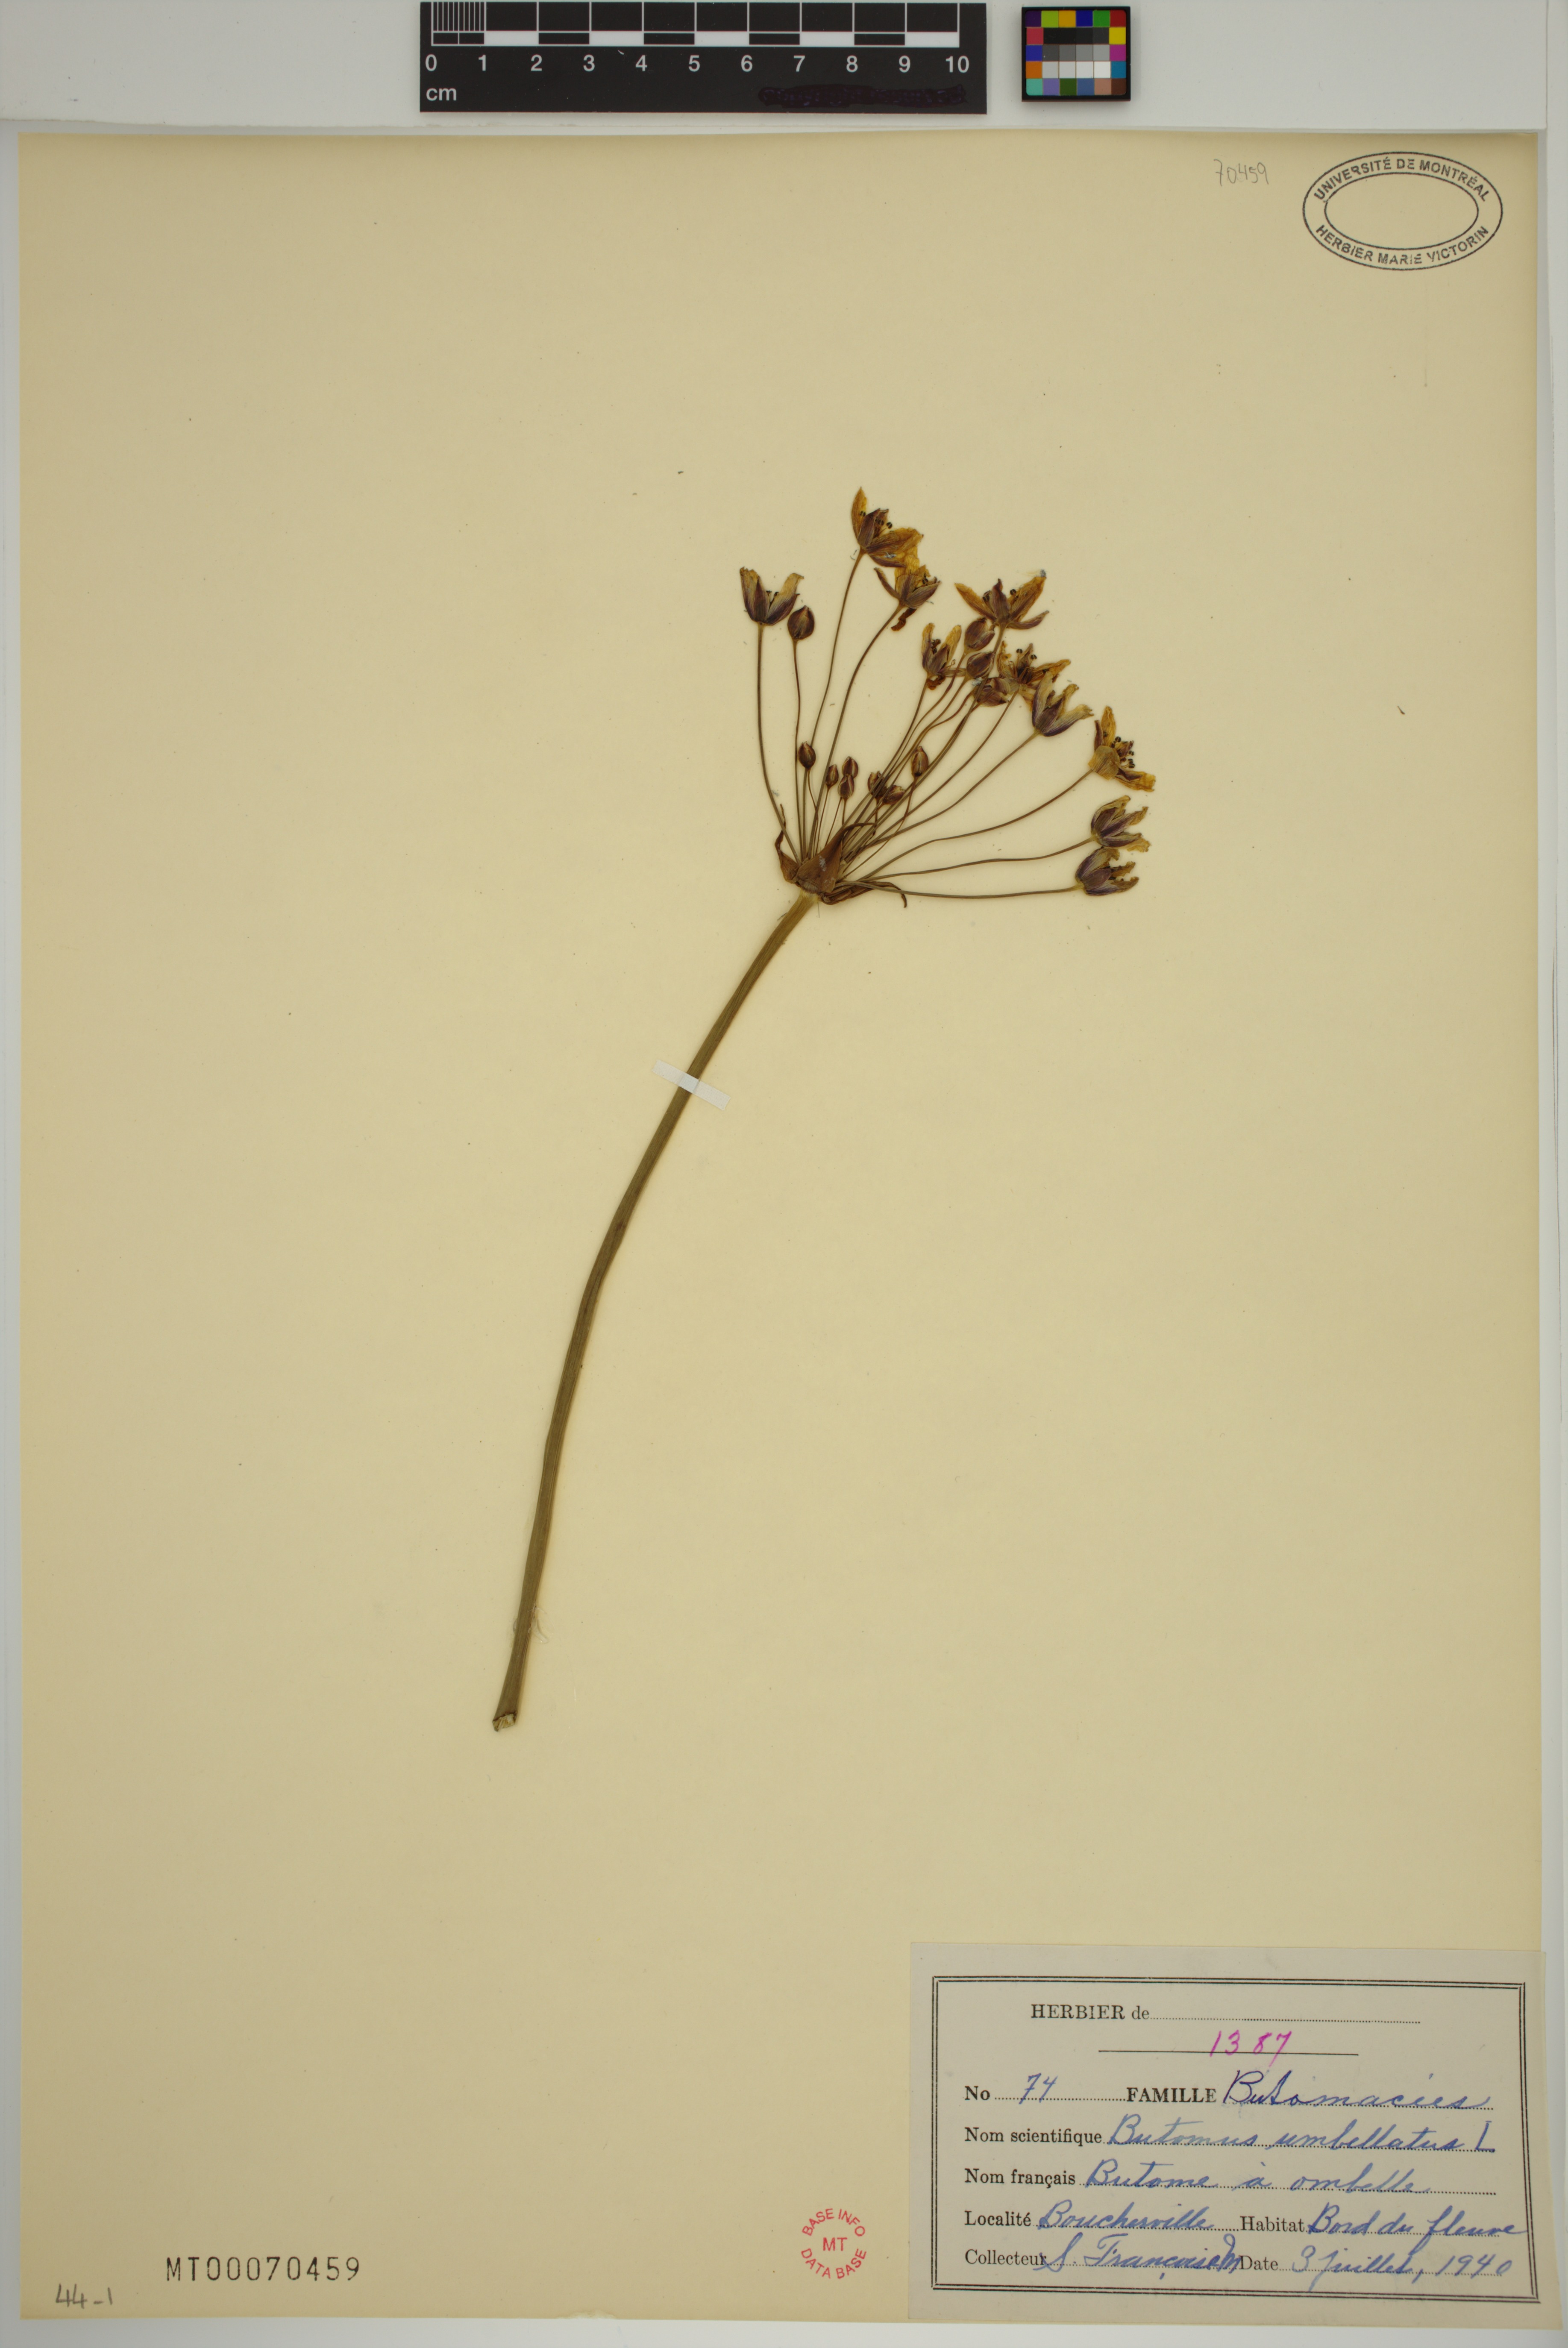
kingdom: Plantae
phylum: Tracheophyta
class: Liliopsida
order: Alismatales
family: Butomaceae
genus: Butomus
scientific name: Butomus umbellatus
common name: Flowering-rush
